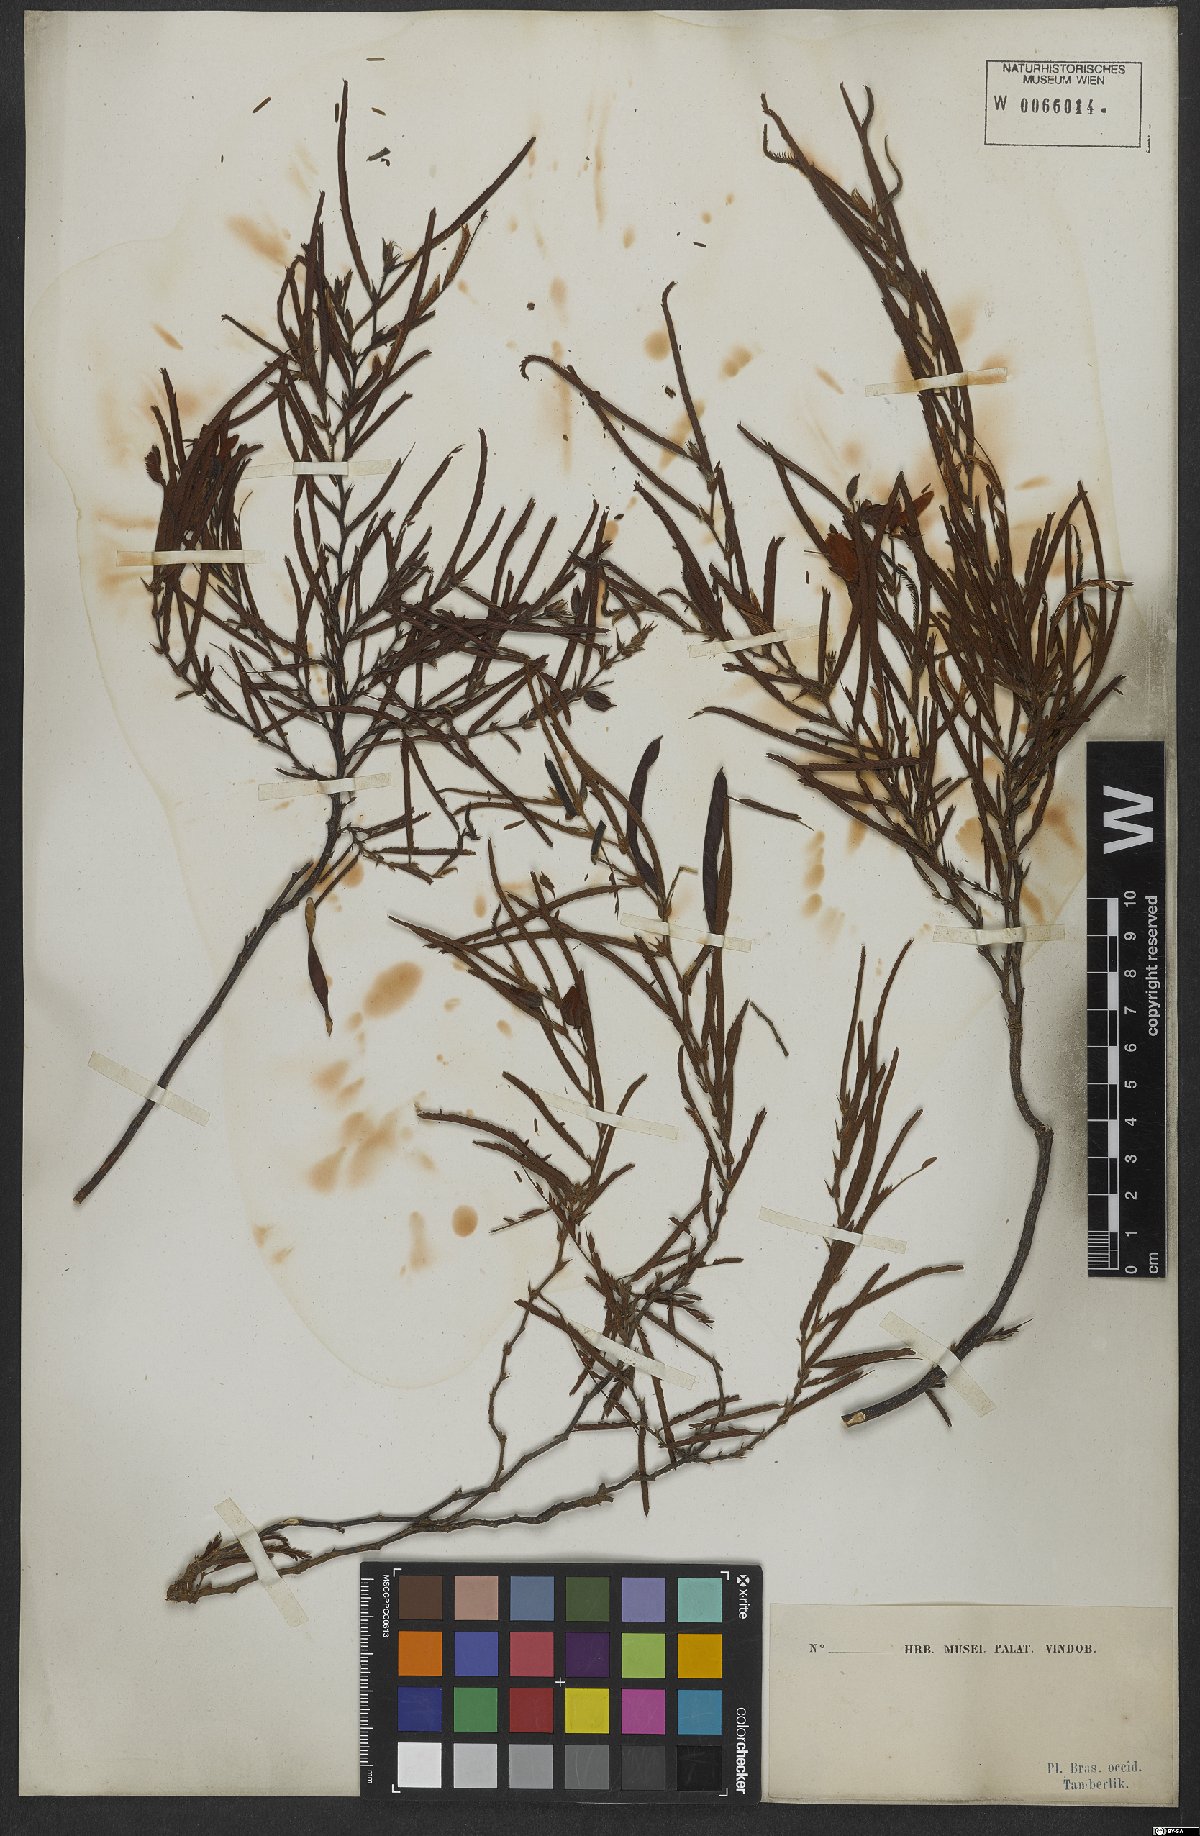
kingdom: Plantae
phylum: Tracheophyta
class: Magnoliopsida
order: Fabales
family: Fabaceae
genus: Chamaecrista
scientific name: Chamaecrista flexuosa
